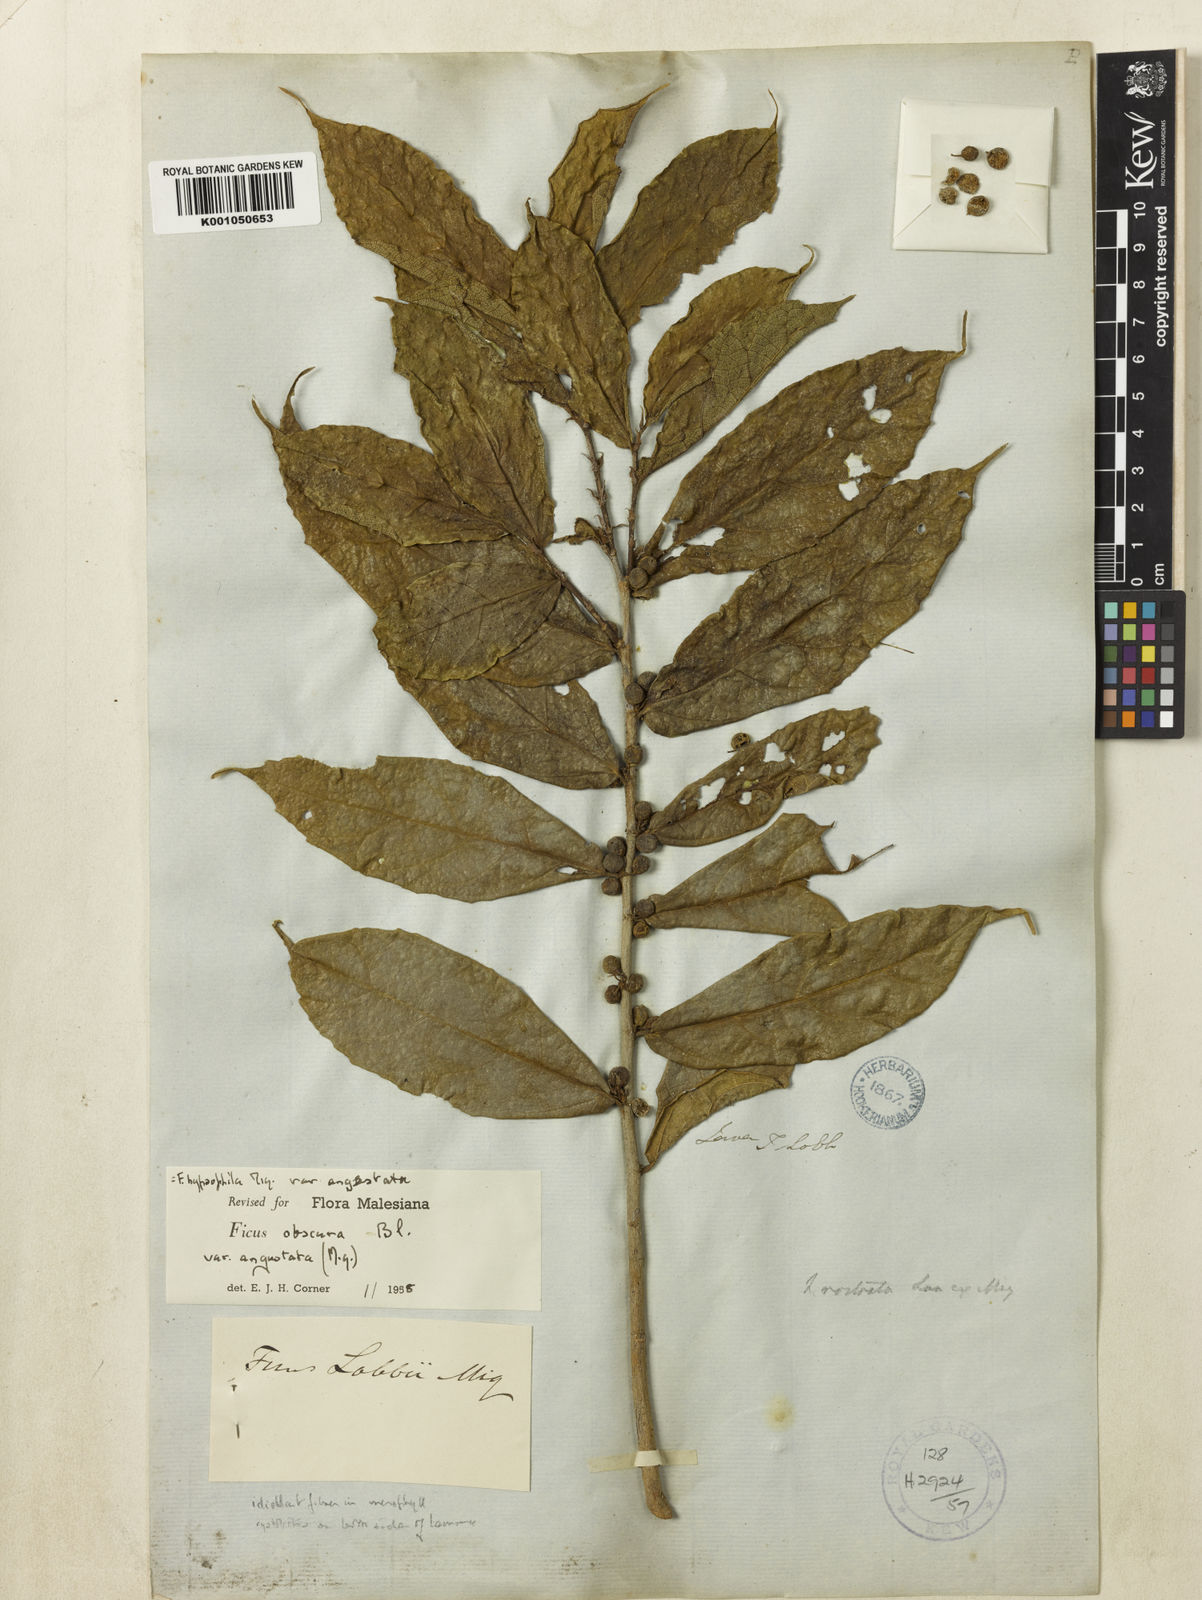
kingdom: Plantae
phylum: Tracheophyta
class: Magnoliopsida
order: Rosales
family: Moraceae
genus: Ficus
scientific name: Ficus obscura
